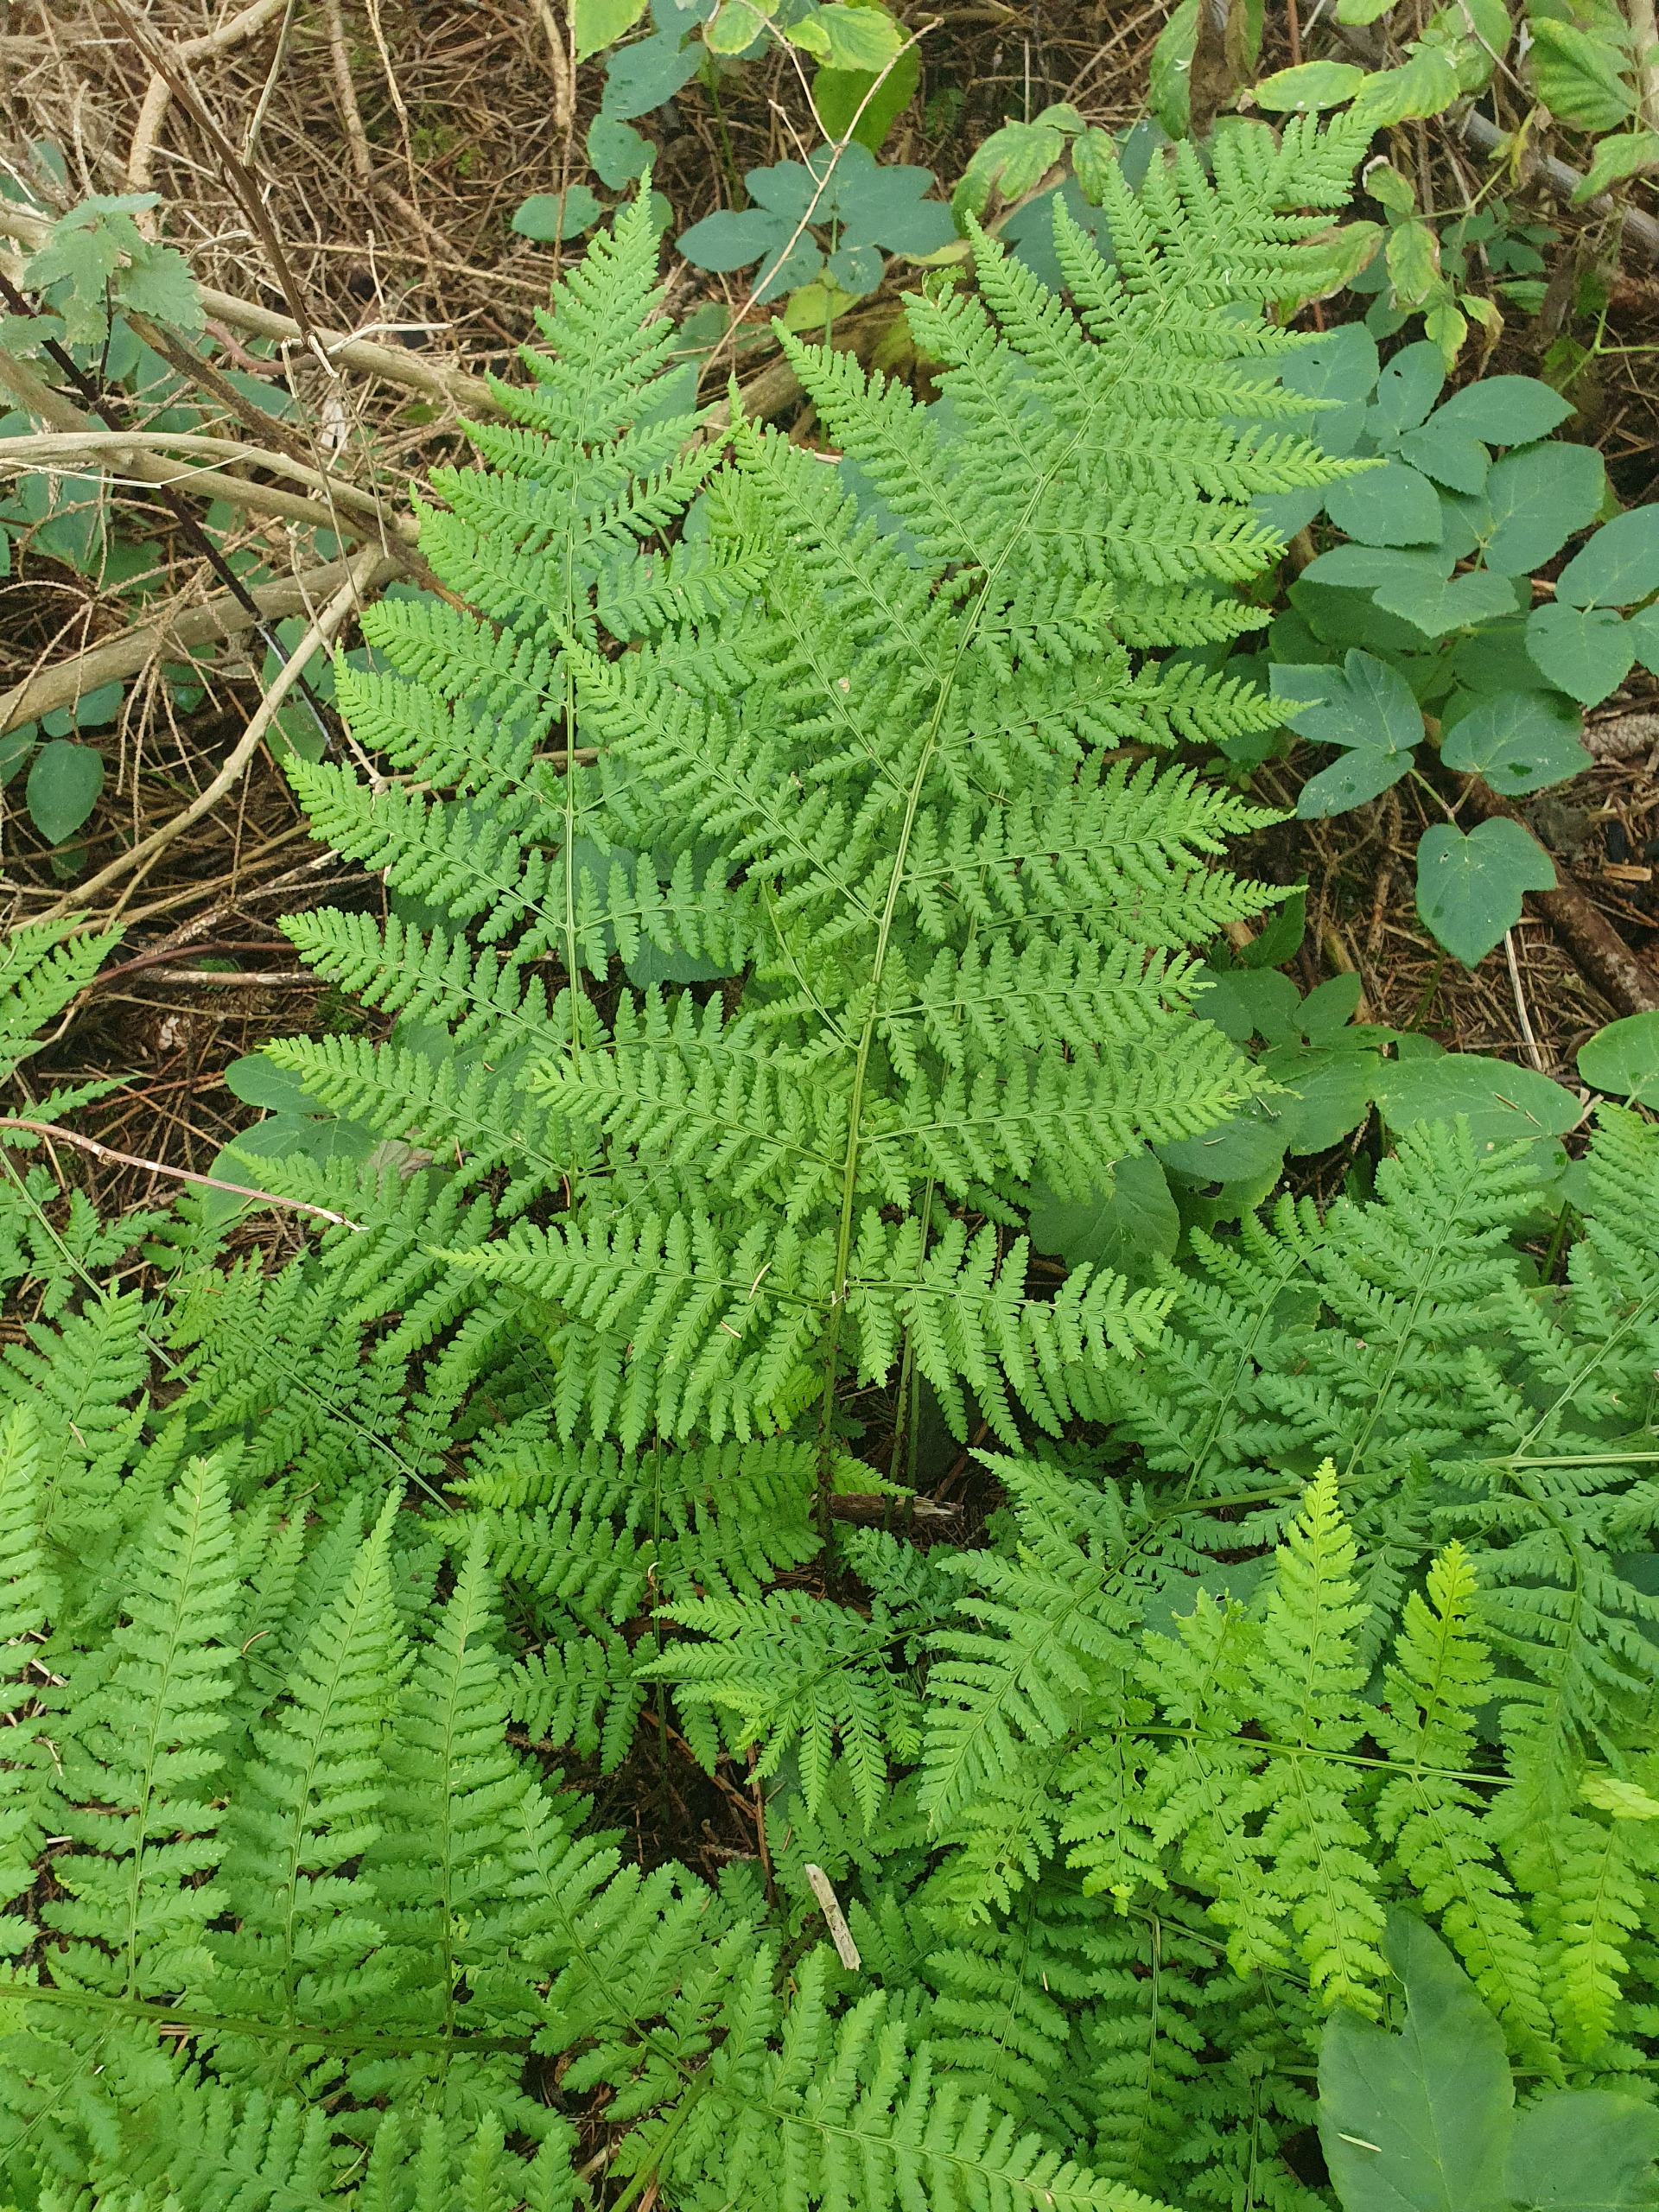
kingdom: Plantae
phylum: Tracheophyta
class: Polypodiopsida
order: Polypodiales
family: Dryopteridaceae
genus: Dryopteris
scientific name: Dryopteris dilatata
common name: Bredbladet mangeløv
